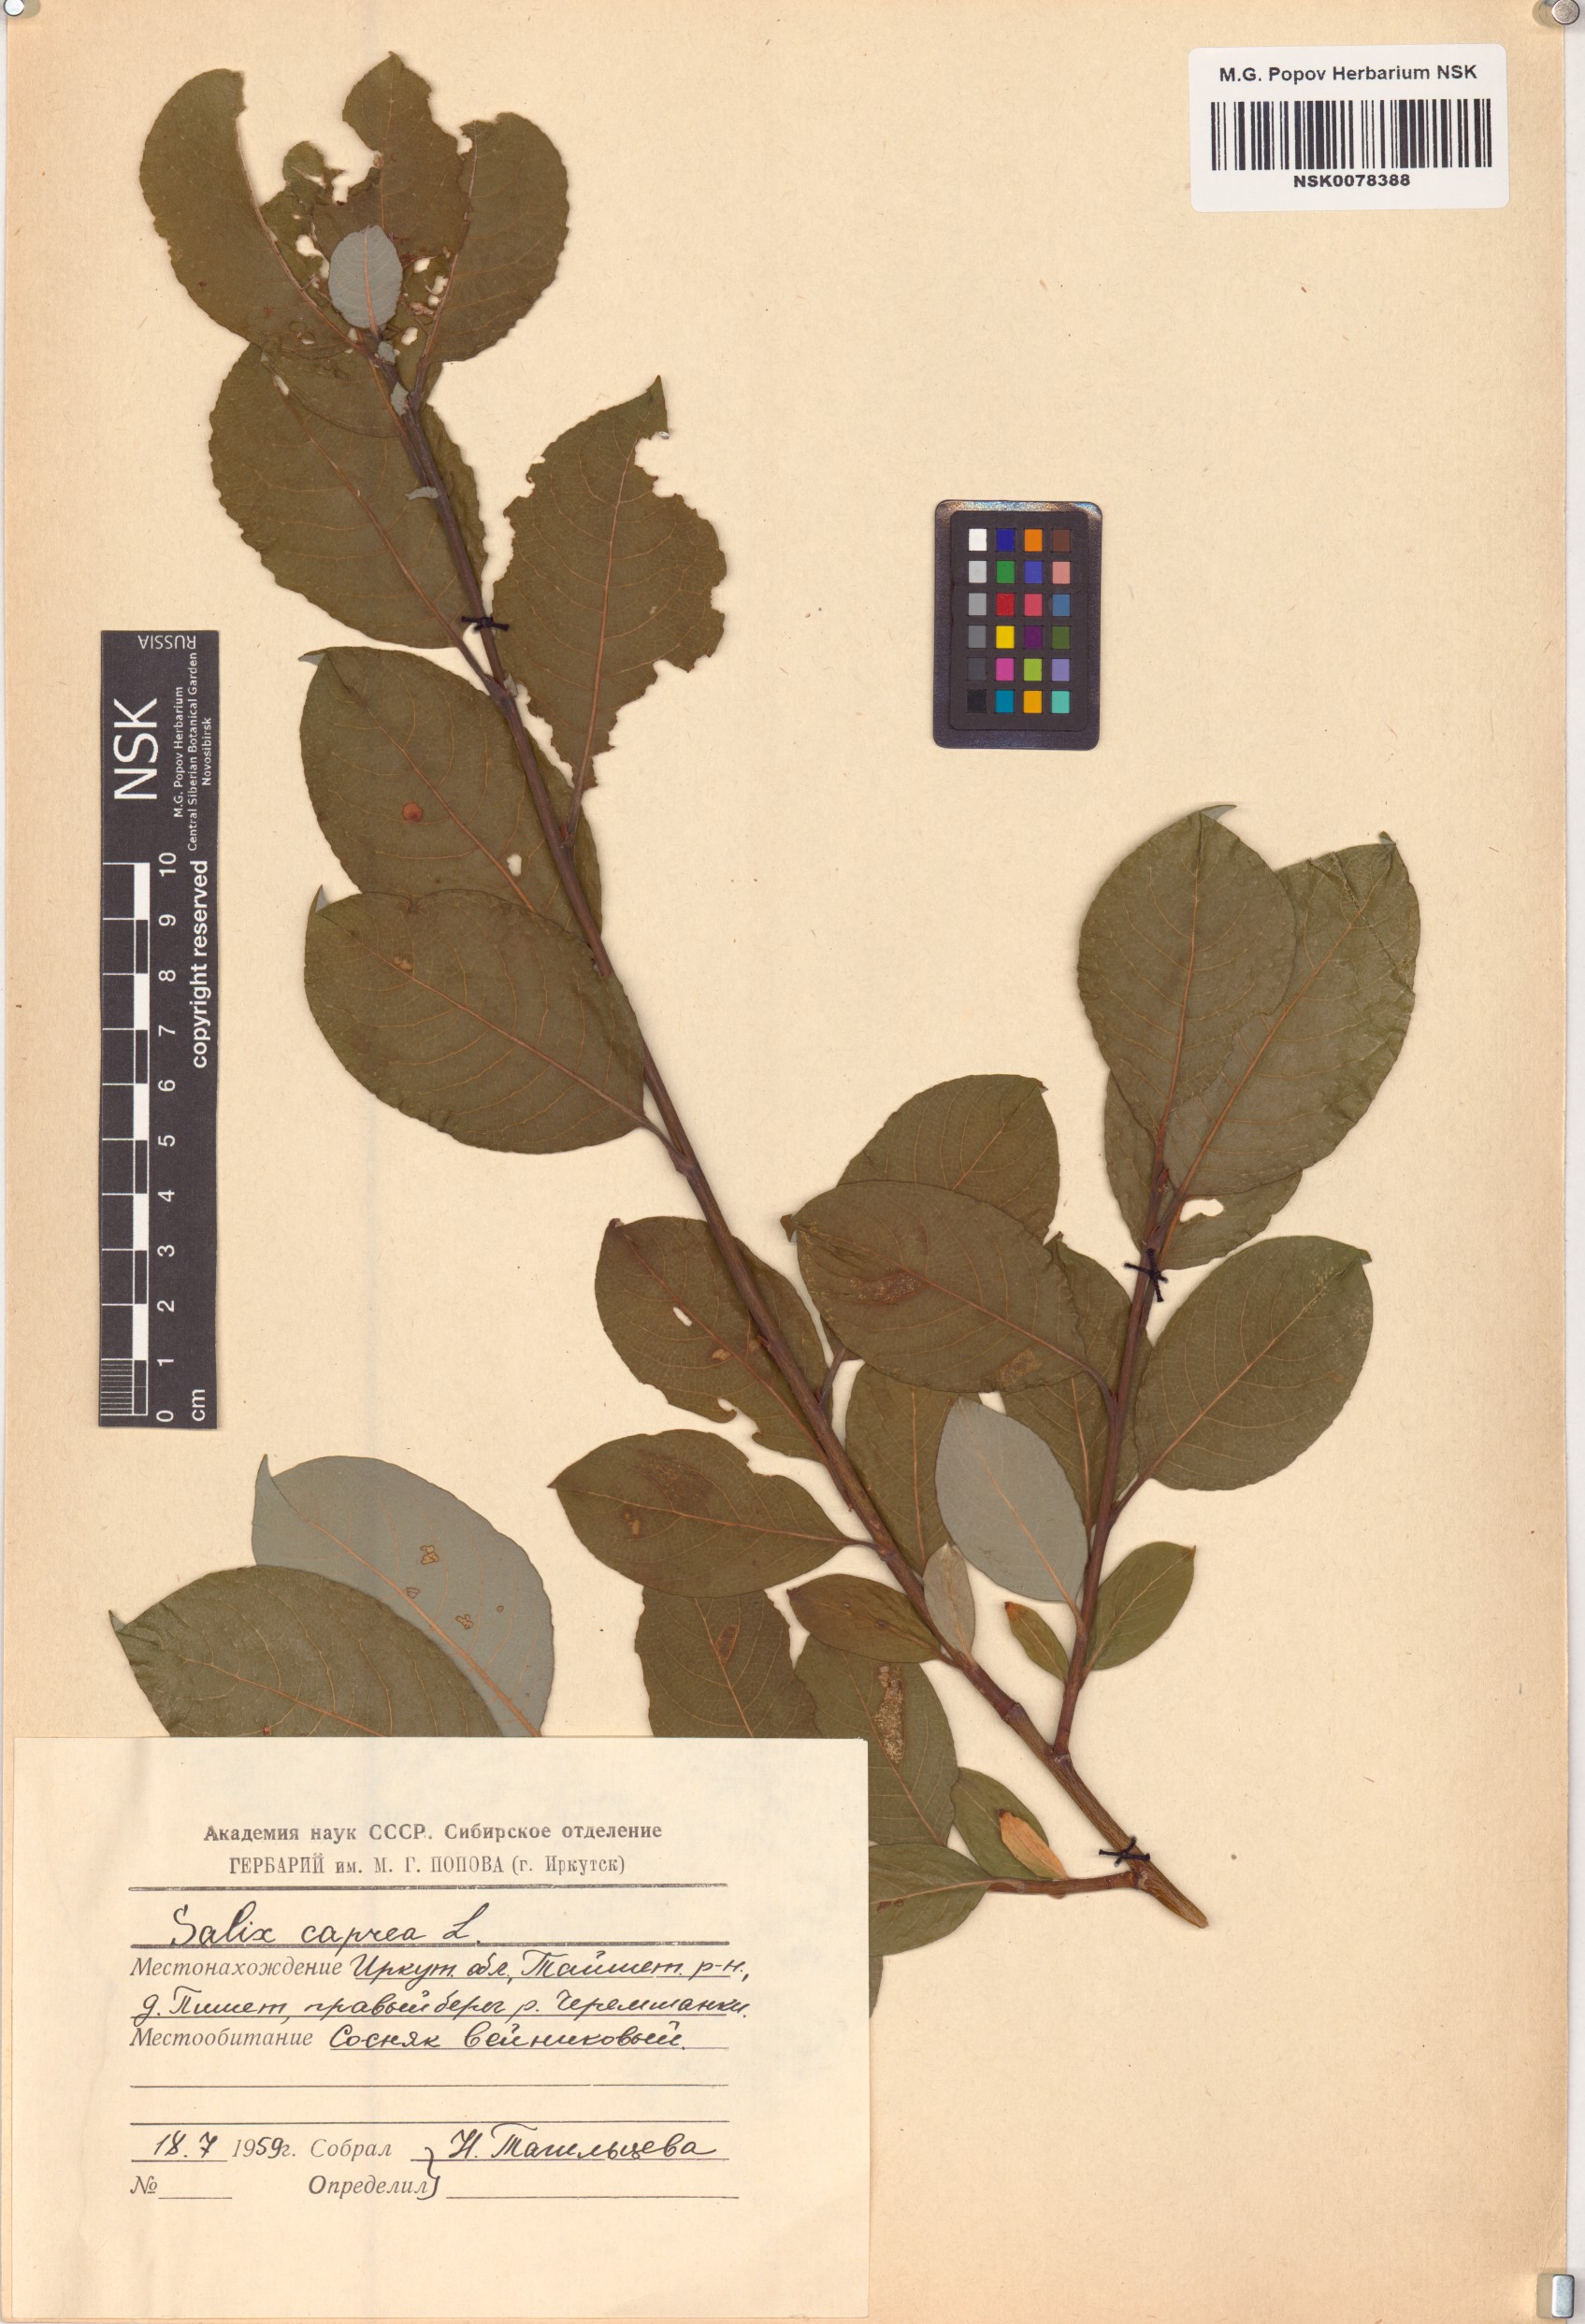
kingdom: Plantae
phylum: Tracheophyta
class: Magnoliopsida
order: Malpighiales
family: Salicaceae
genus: Salix
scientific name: Salix caprea
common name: Goat willow
